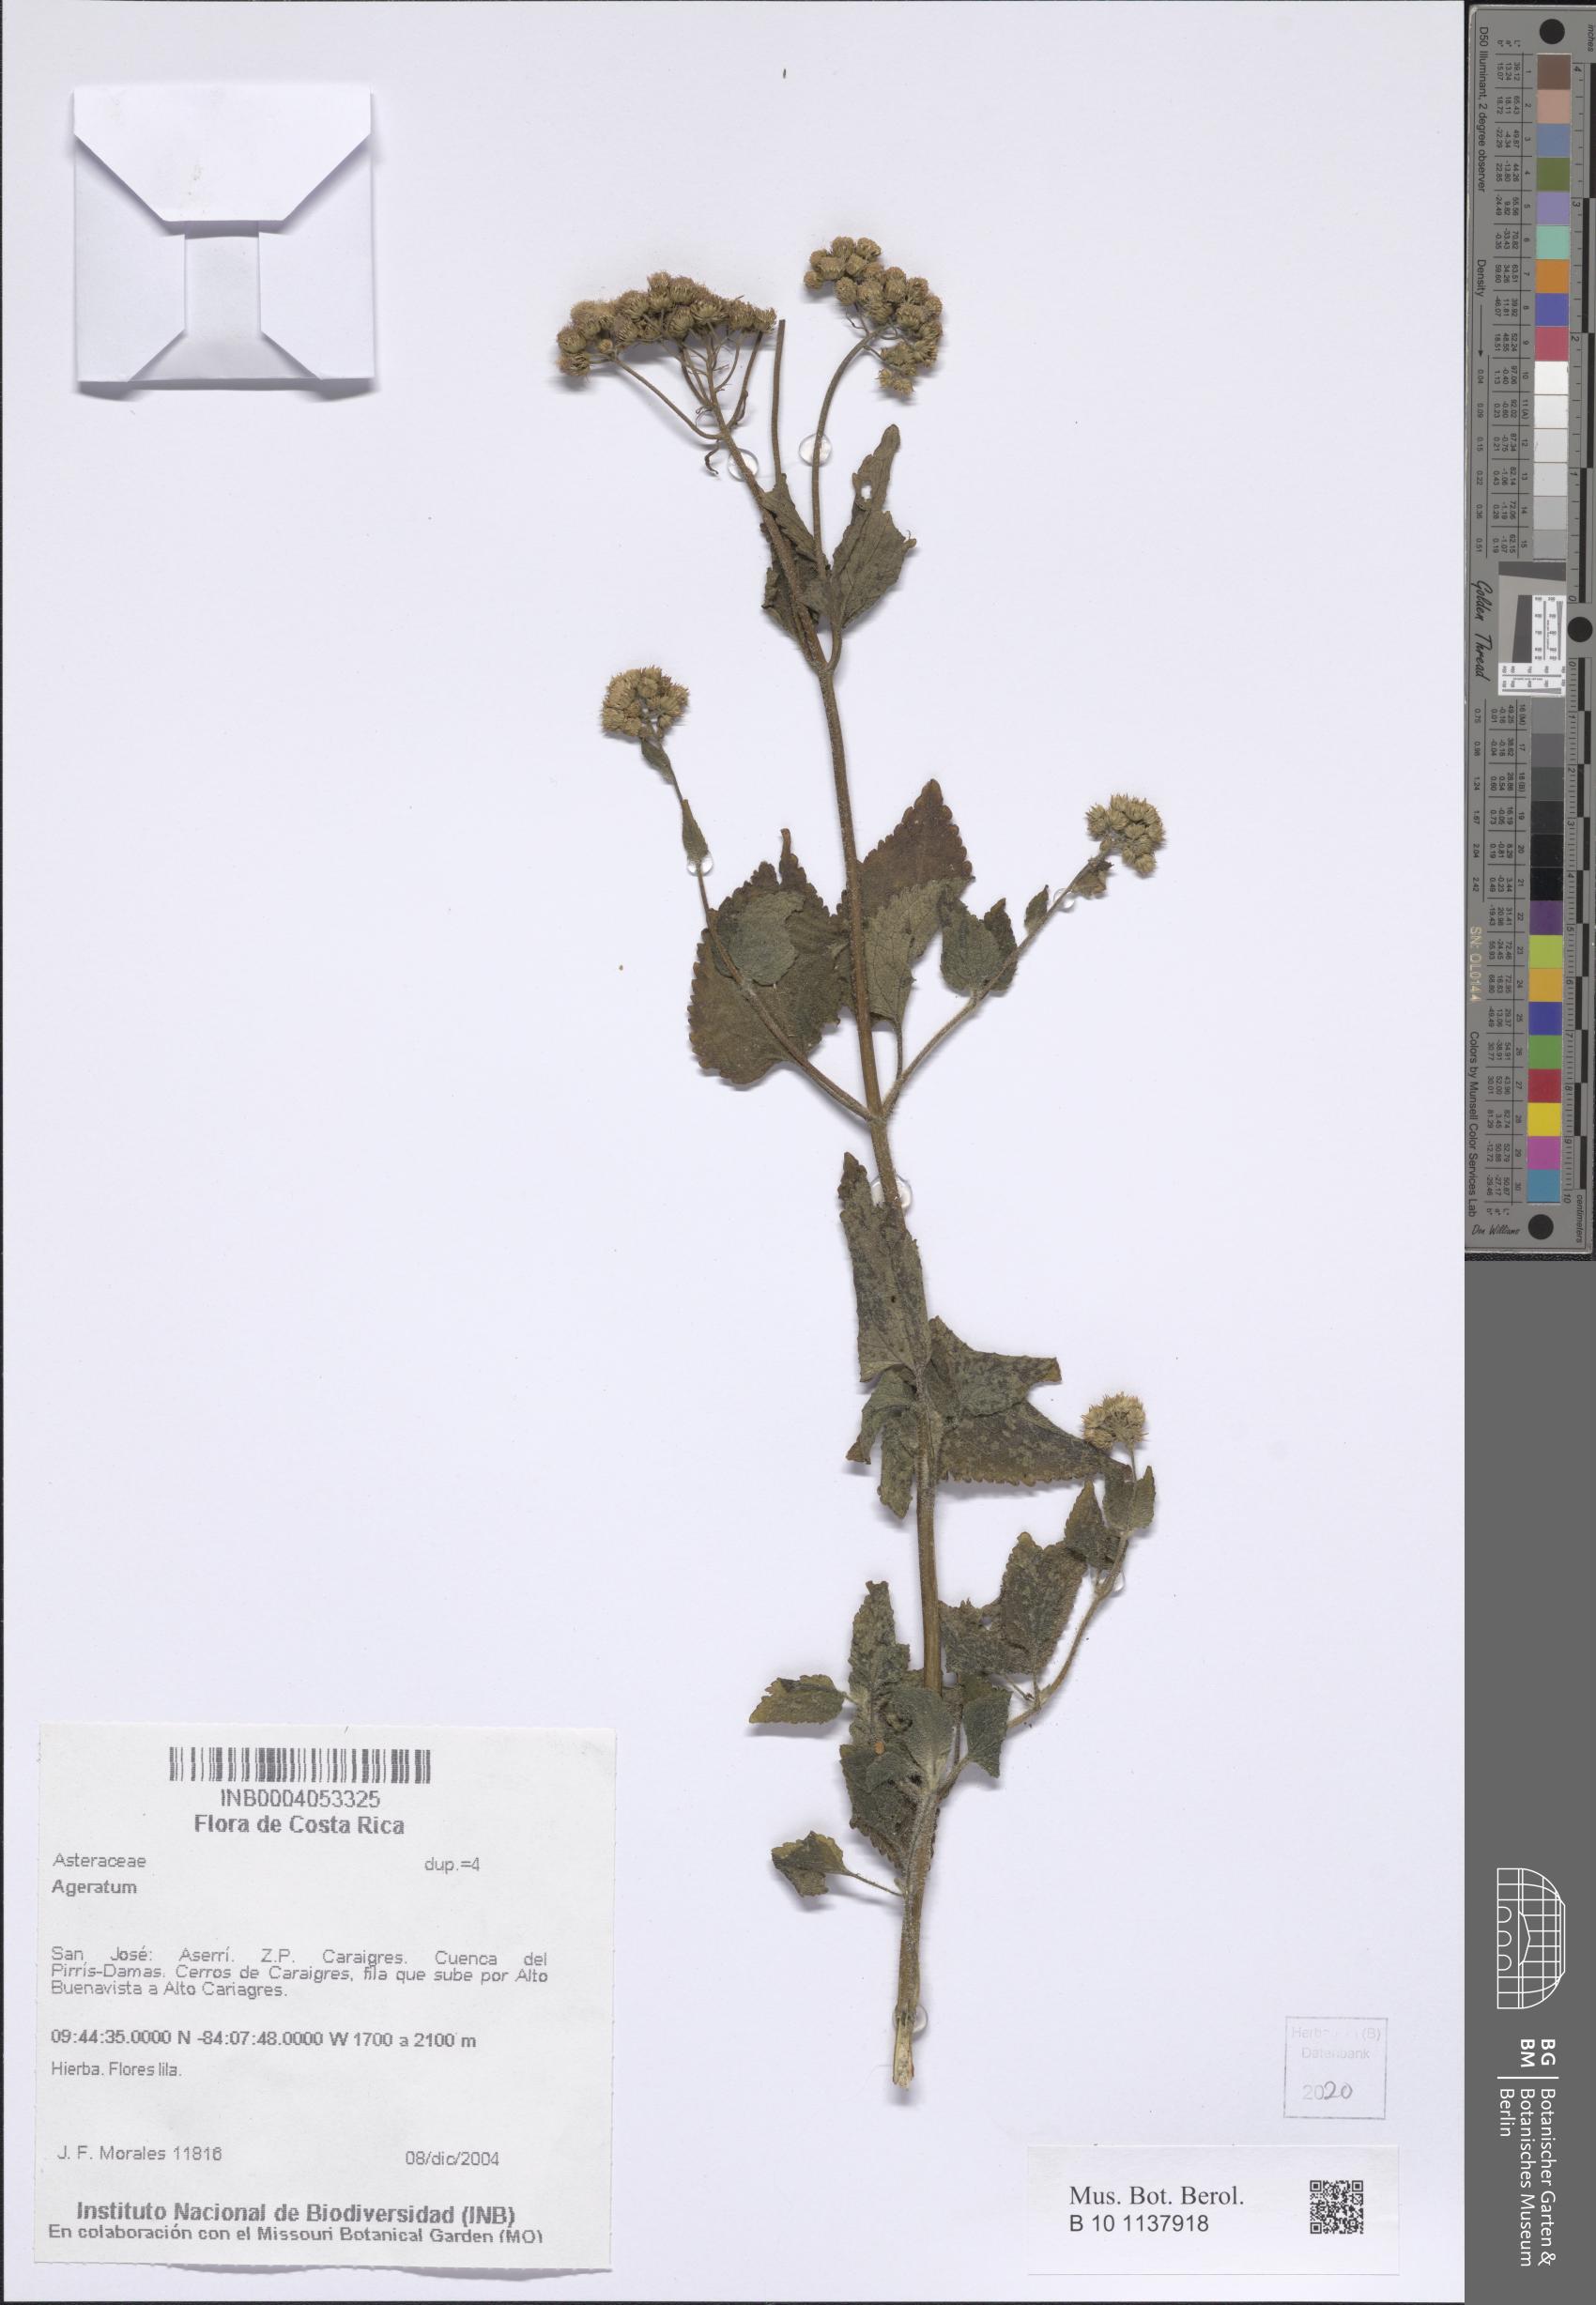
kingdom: Plantae
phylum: Tracheophyta
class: Magnoliopsida
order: Asterales
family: Asteraceae
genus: Ageratum
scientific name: Ageratum
